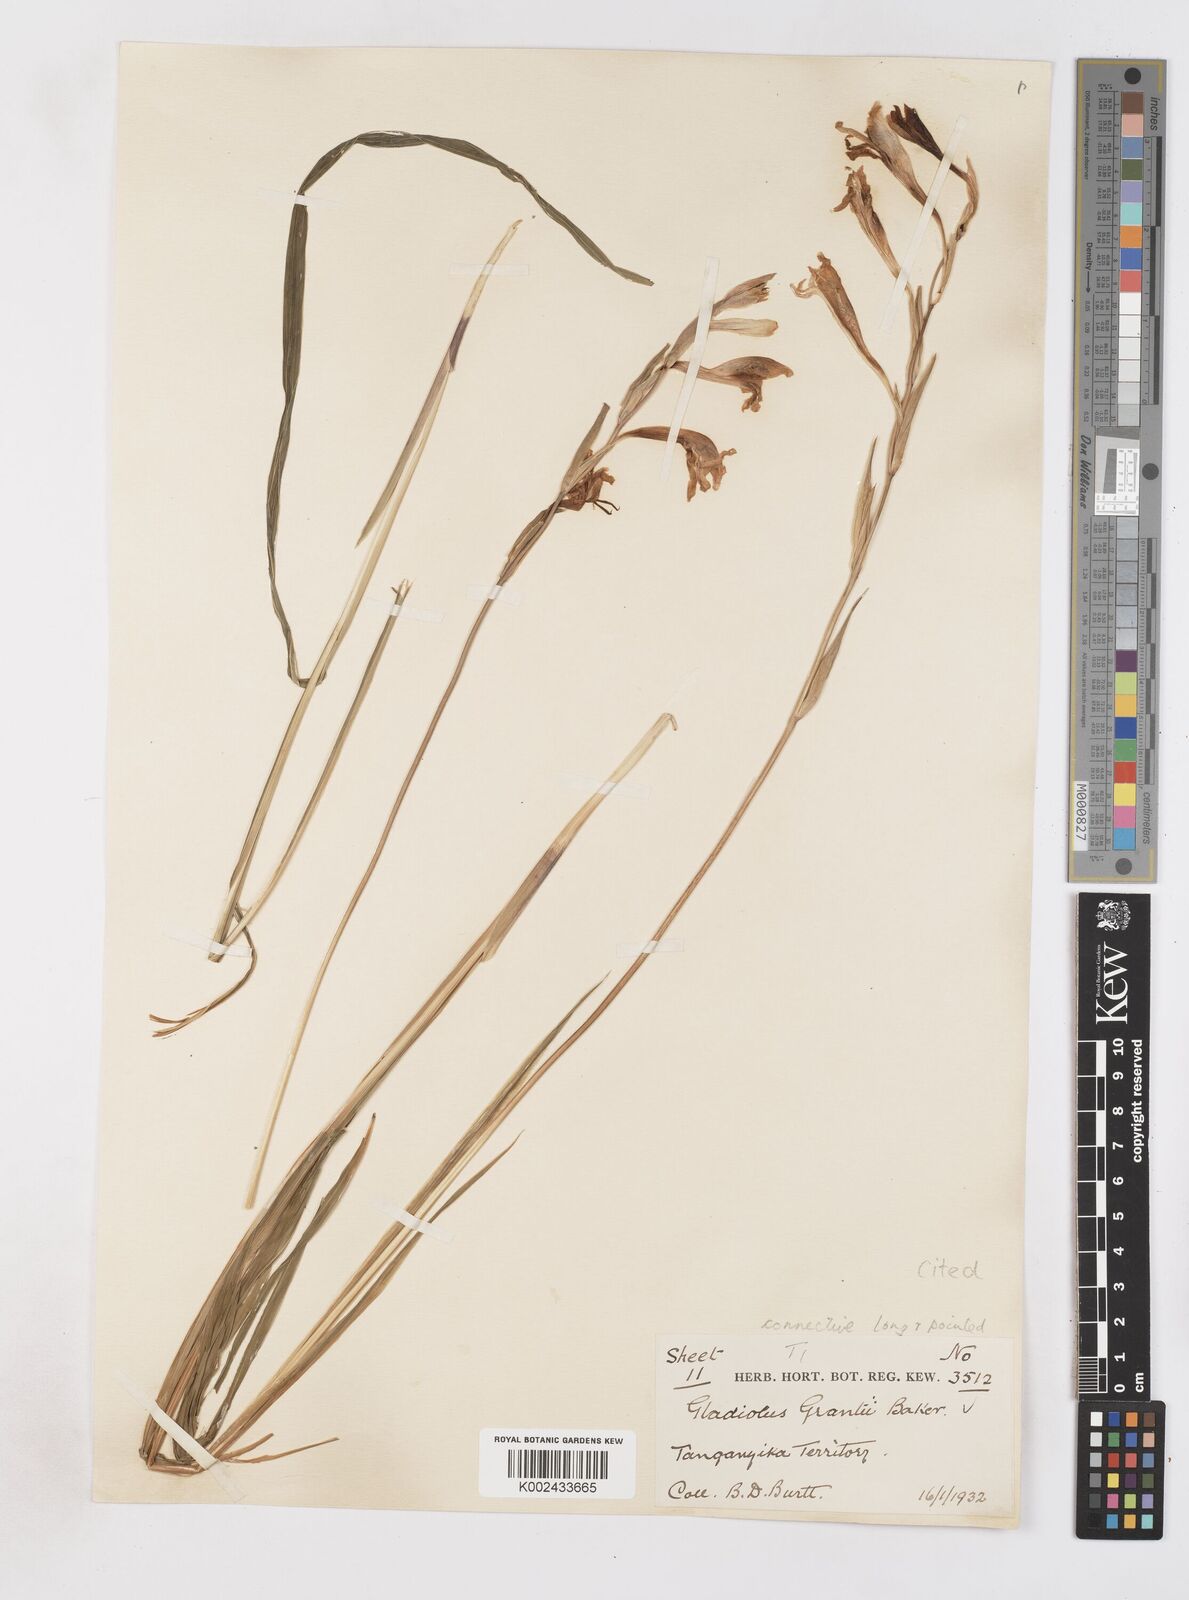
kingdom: Plantae
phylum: Tracheophyta
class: Liliopsida
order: Asparagales
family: Iridaceae
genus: Gladiolus
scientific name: Gladiolus grantii
